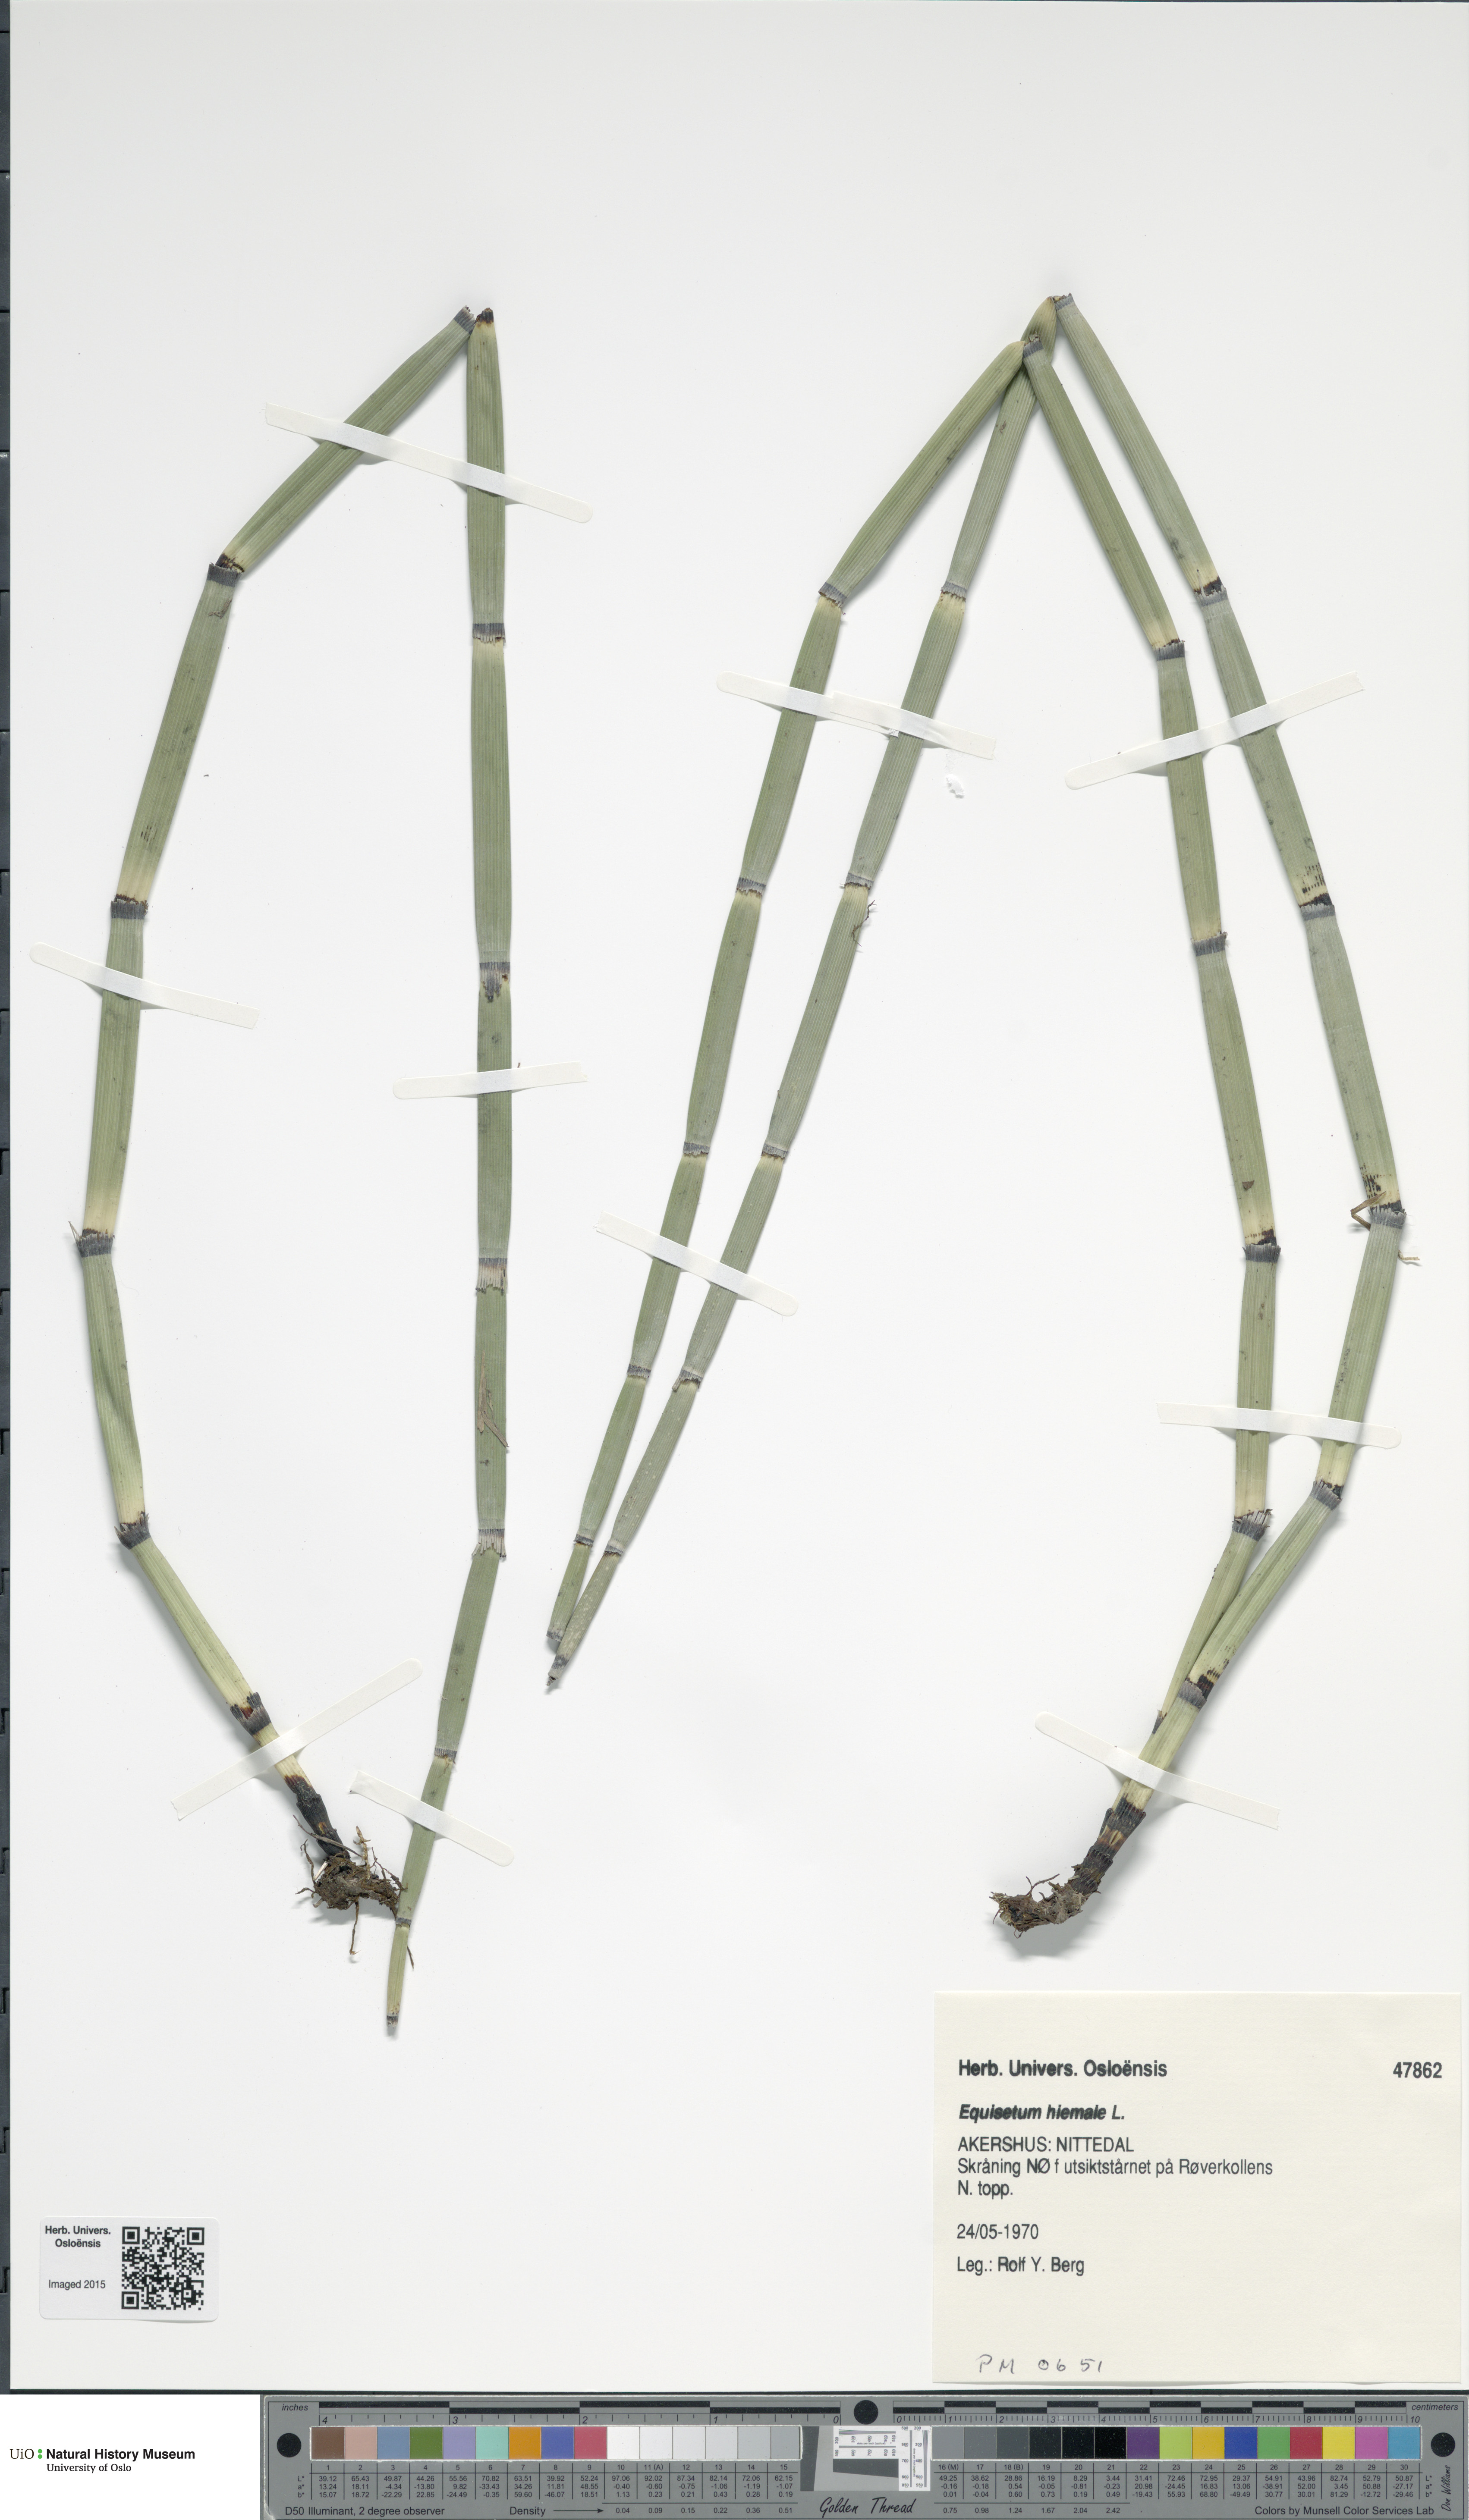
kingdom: Plantae
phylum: Tracheophyta
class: Polypodiopsida
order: Equisetales
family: Equisetaceae
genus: Equisetum
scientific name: Equisetum hyemale
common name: Rough horsetail
